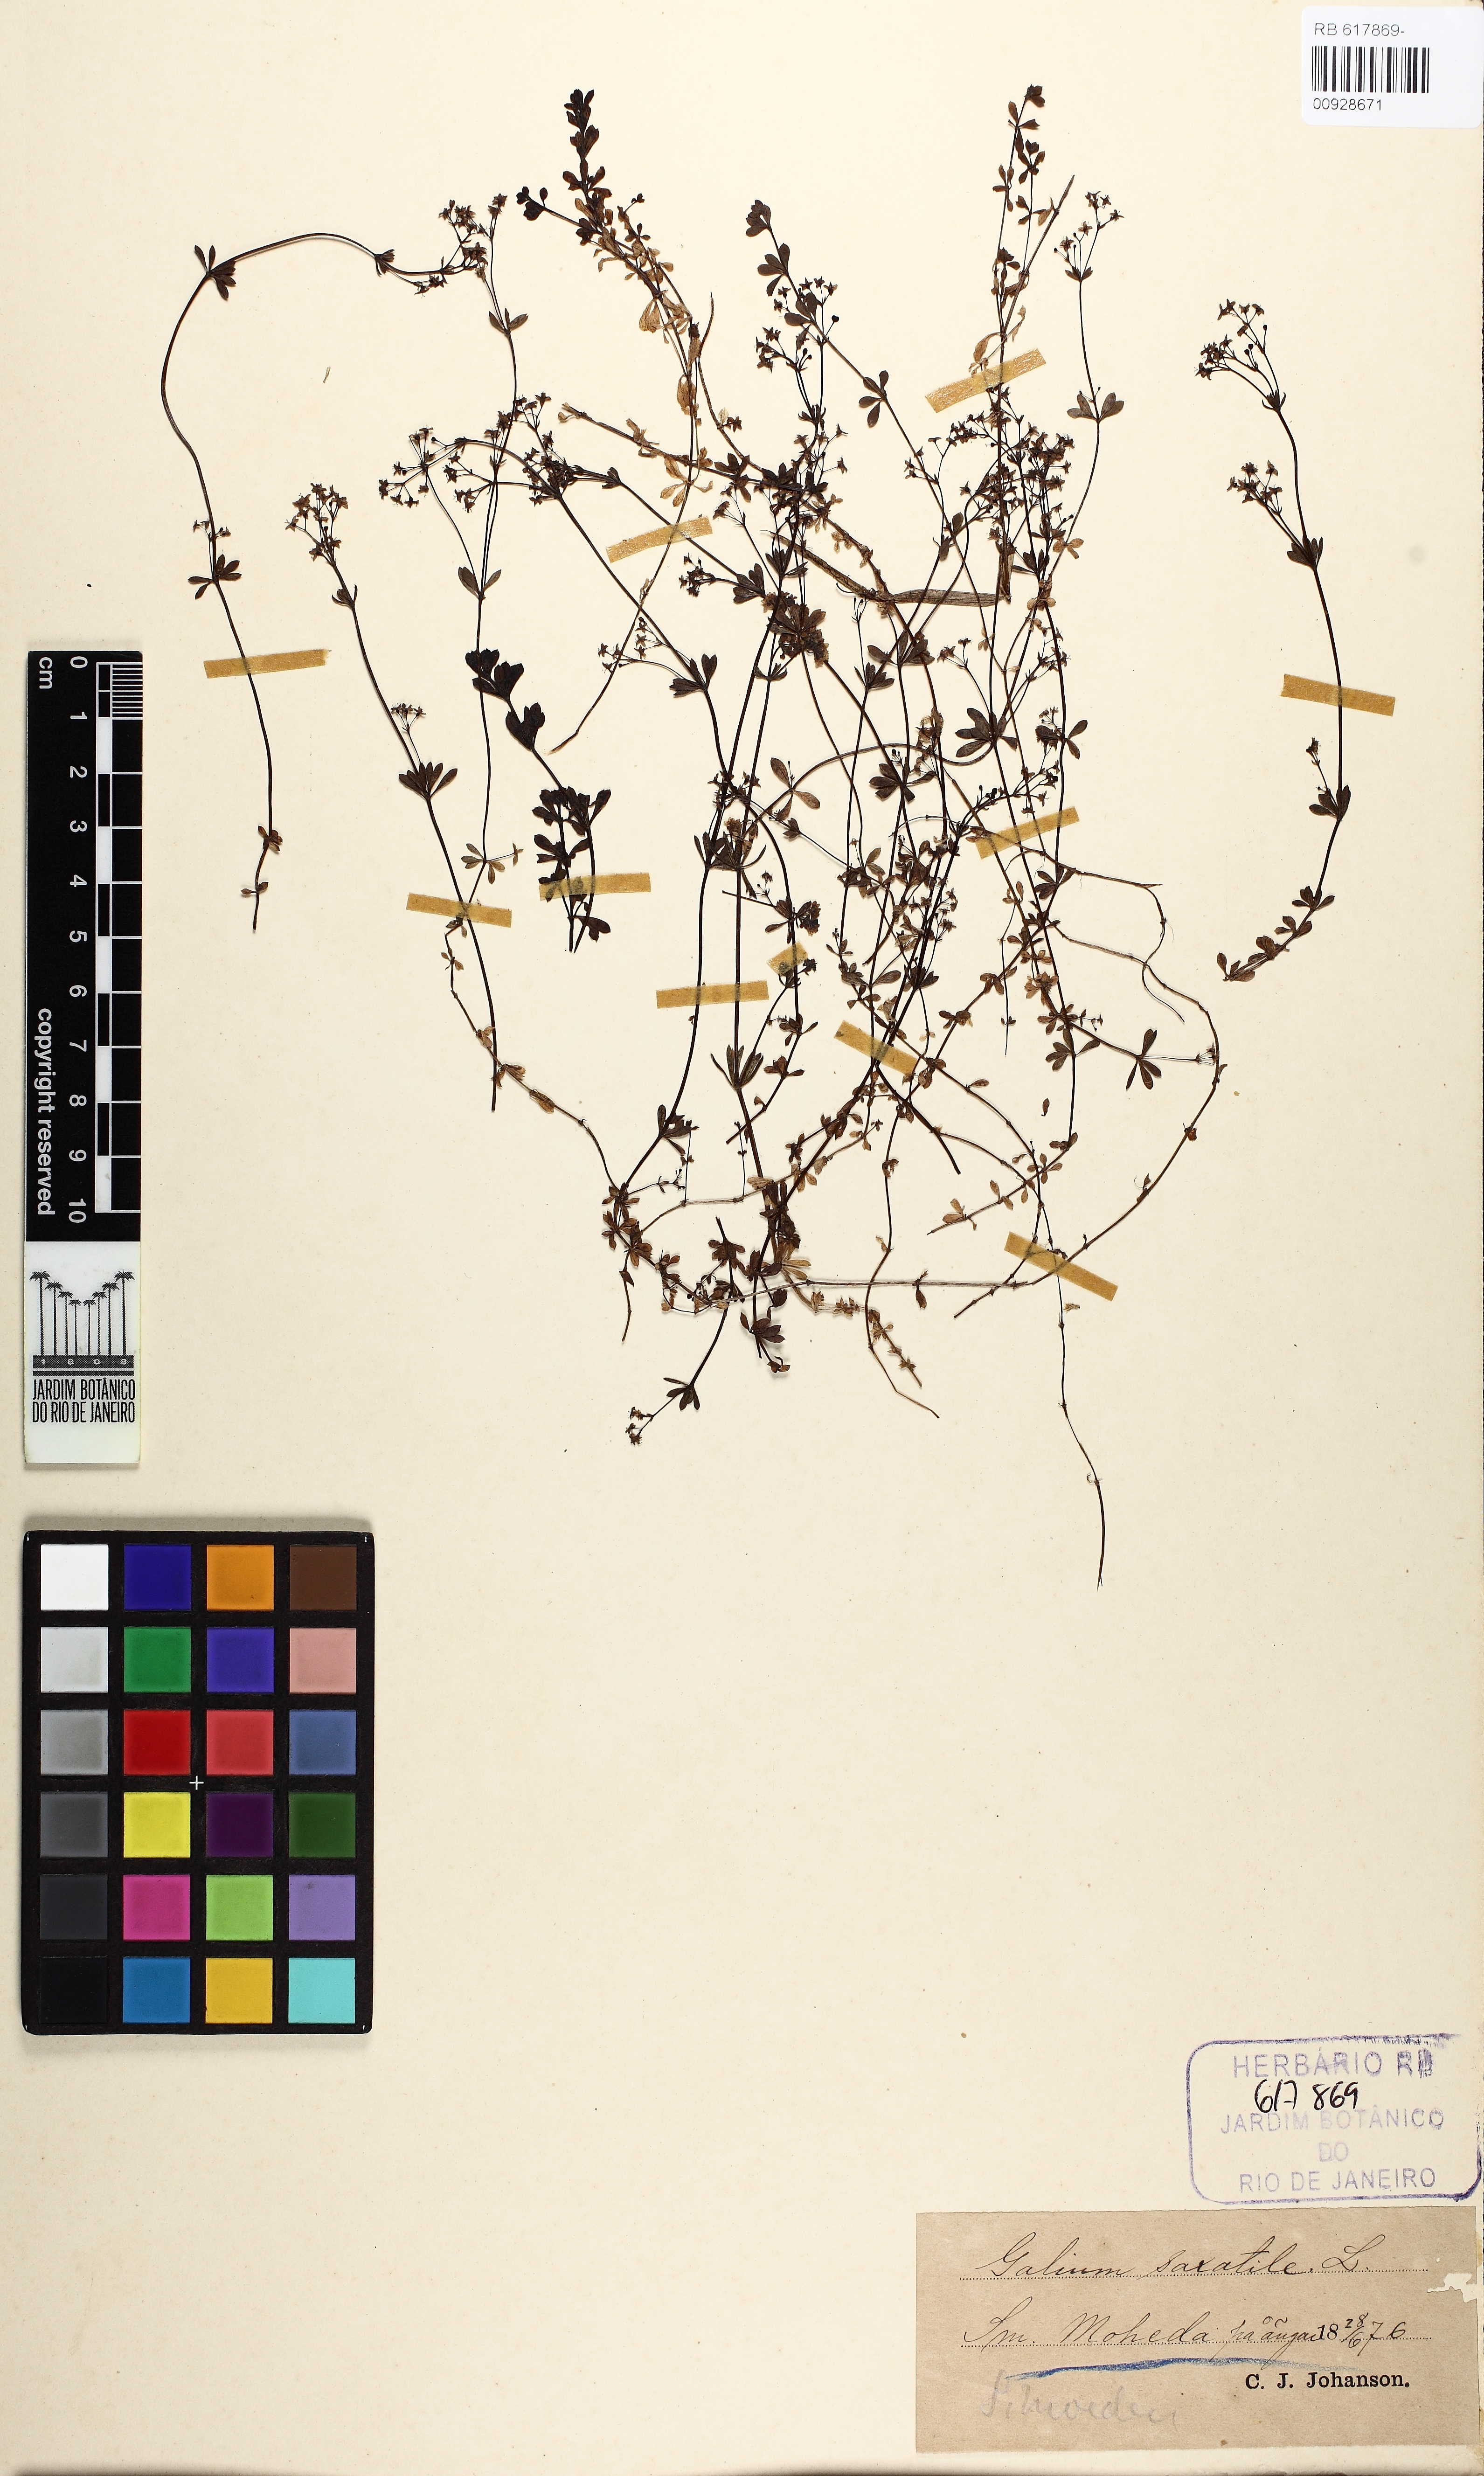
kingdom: Plantae
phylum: Tracheophyta
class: Magnoliopsida
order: Gentianales
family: Rubiaceae
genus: Galium
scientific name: Galium saxatile
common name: Heath bedstraw
